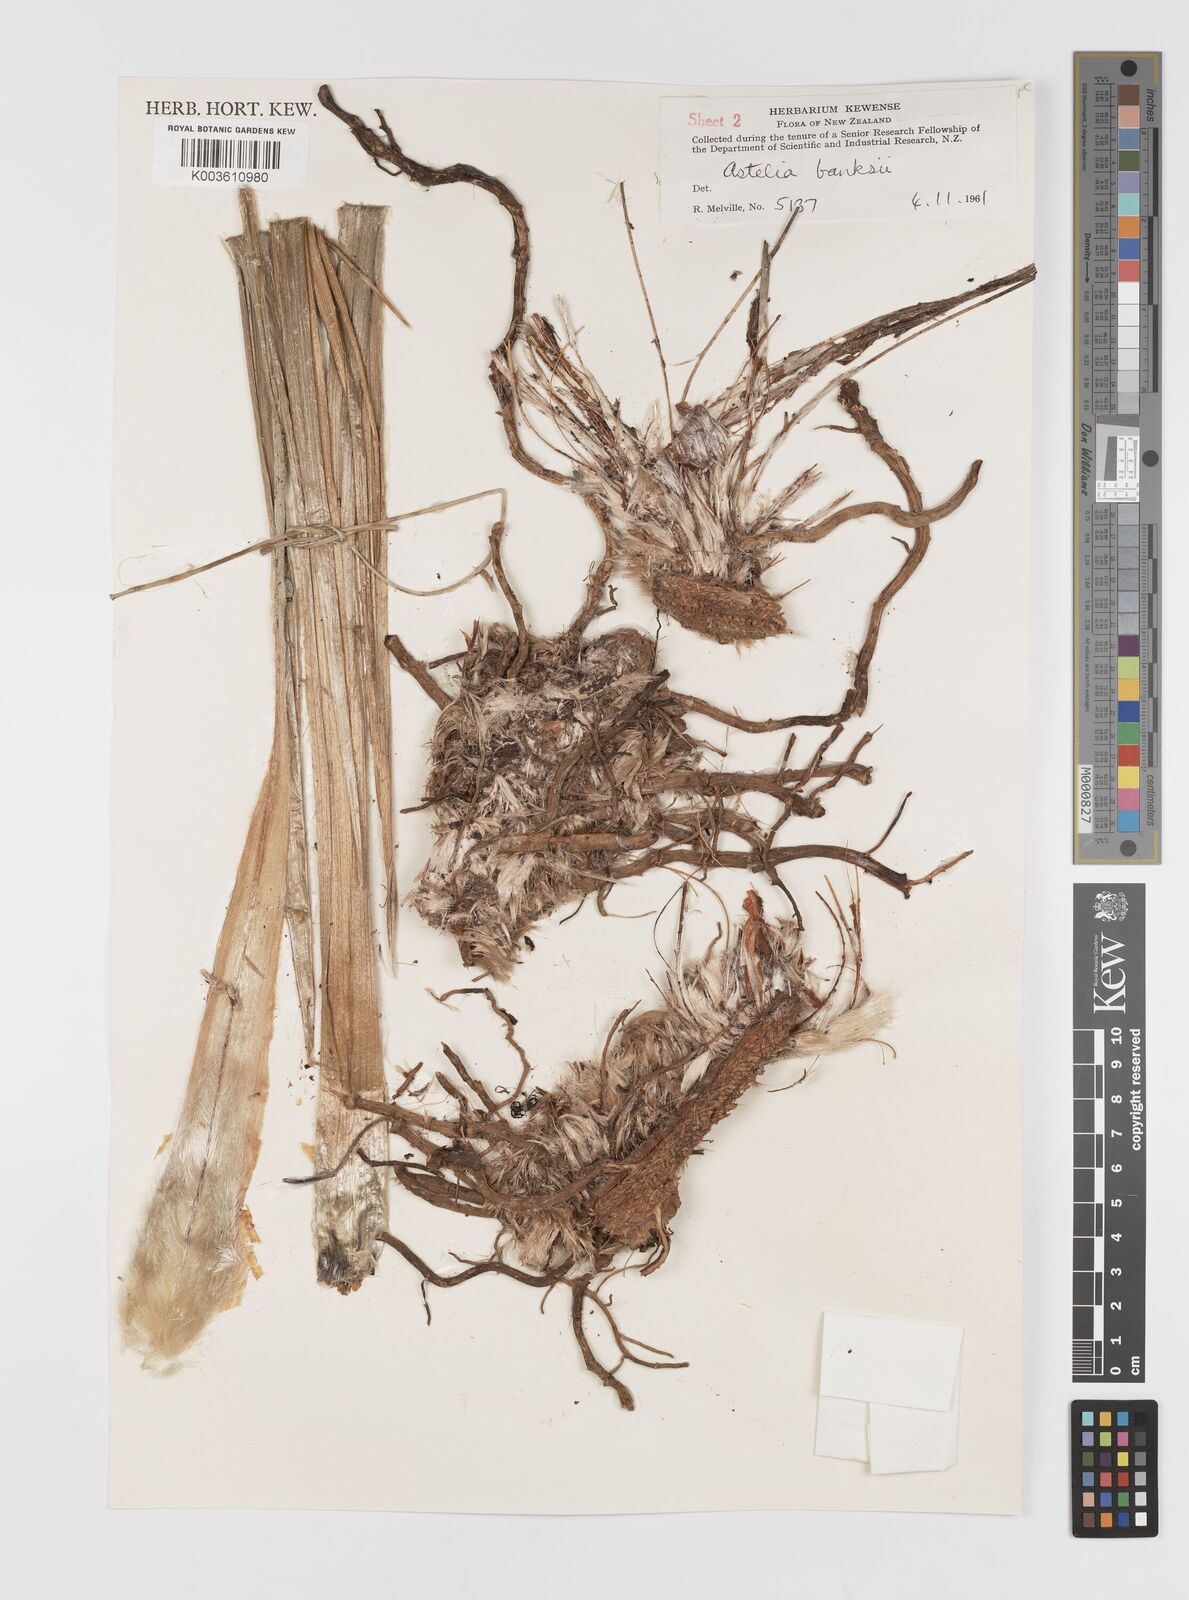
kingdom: Plantae
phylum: Tracheophyta
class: Liliopsida
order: Asparagales
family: Asteliaceae
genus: Astelia
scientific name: Astelia banksii
